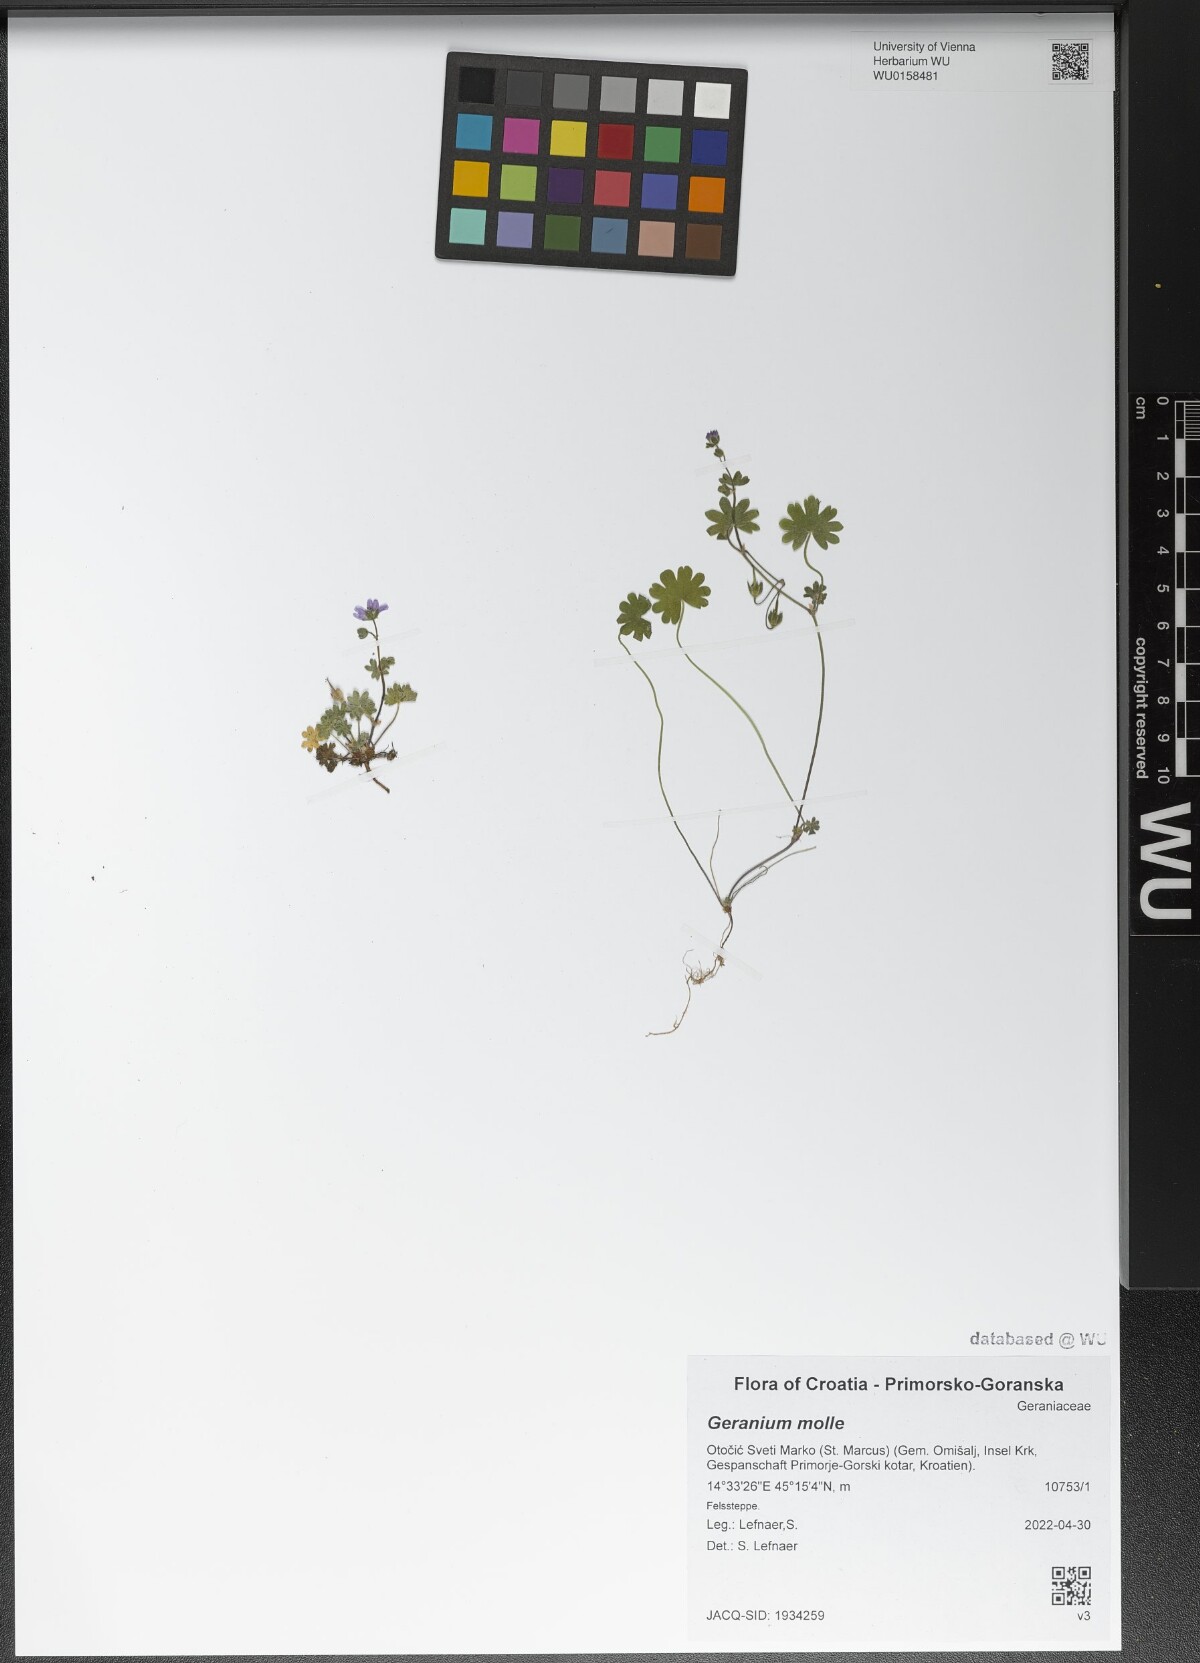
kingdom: Plantae
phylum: Tracheophyta
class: Magnoliopsida
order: Geraniales
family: Geraniaceae
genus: Geranium
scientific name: Geranium molle
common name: Dove's-foot crane's-bill
